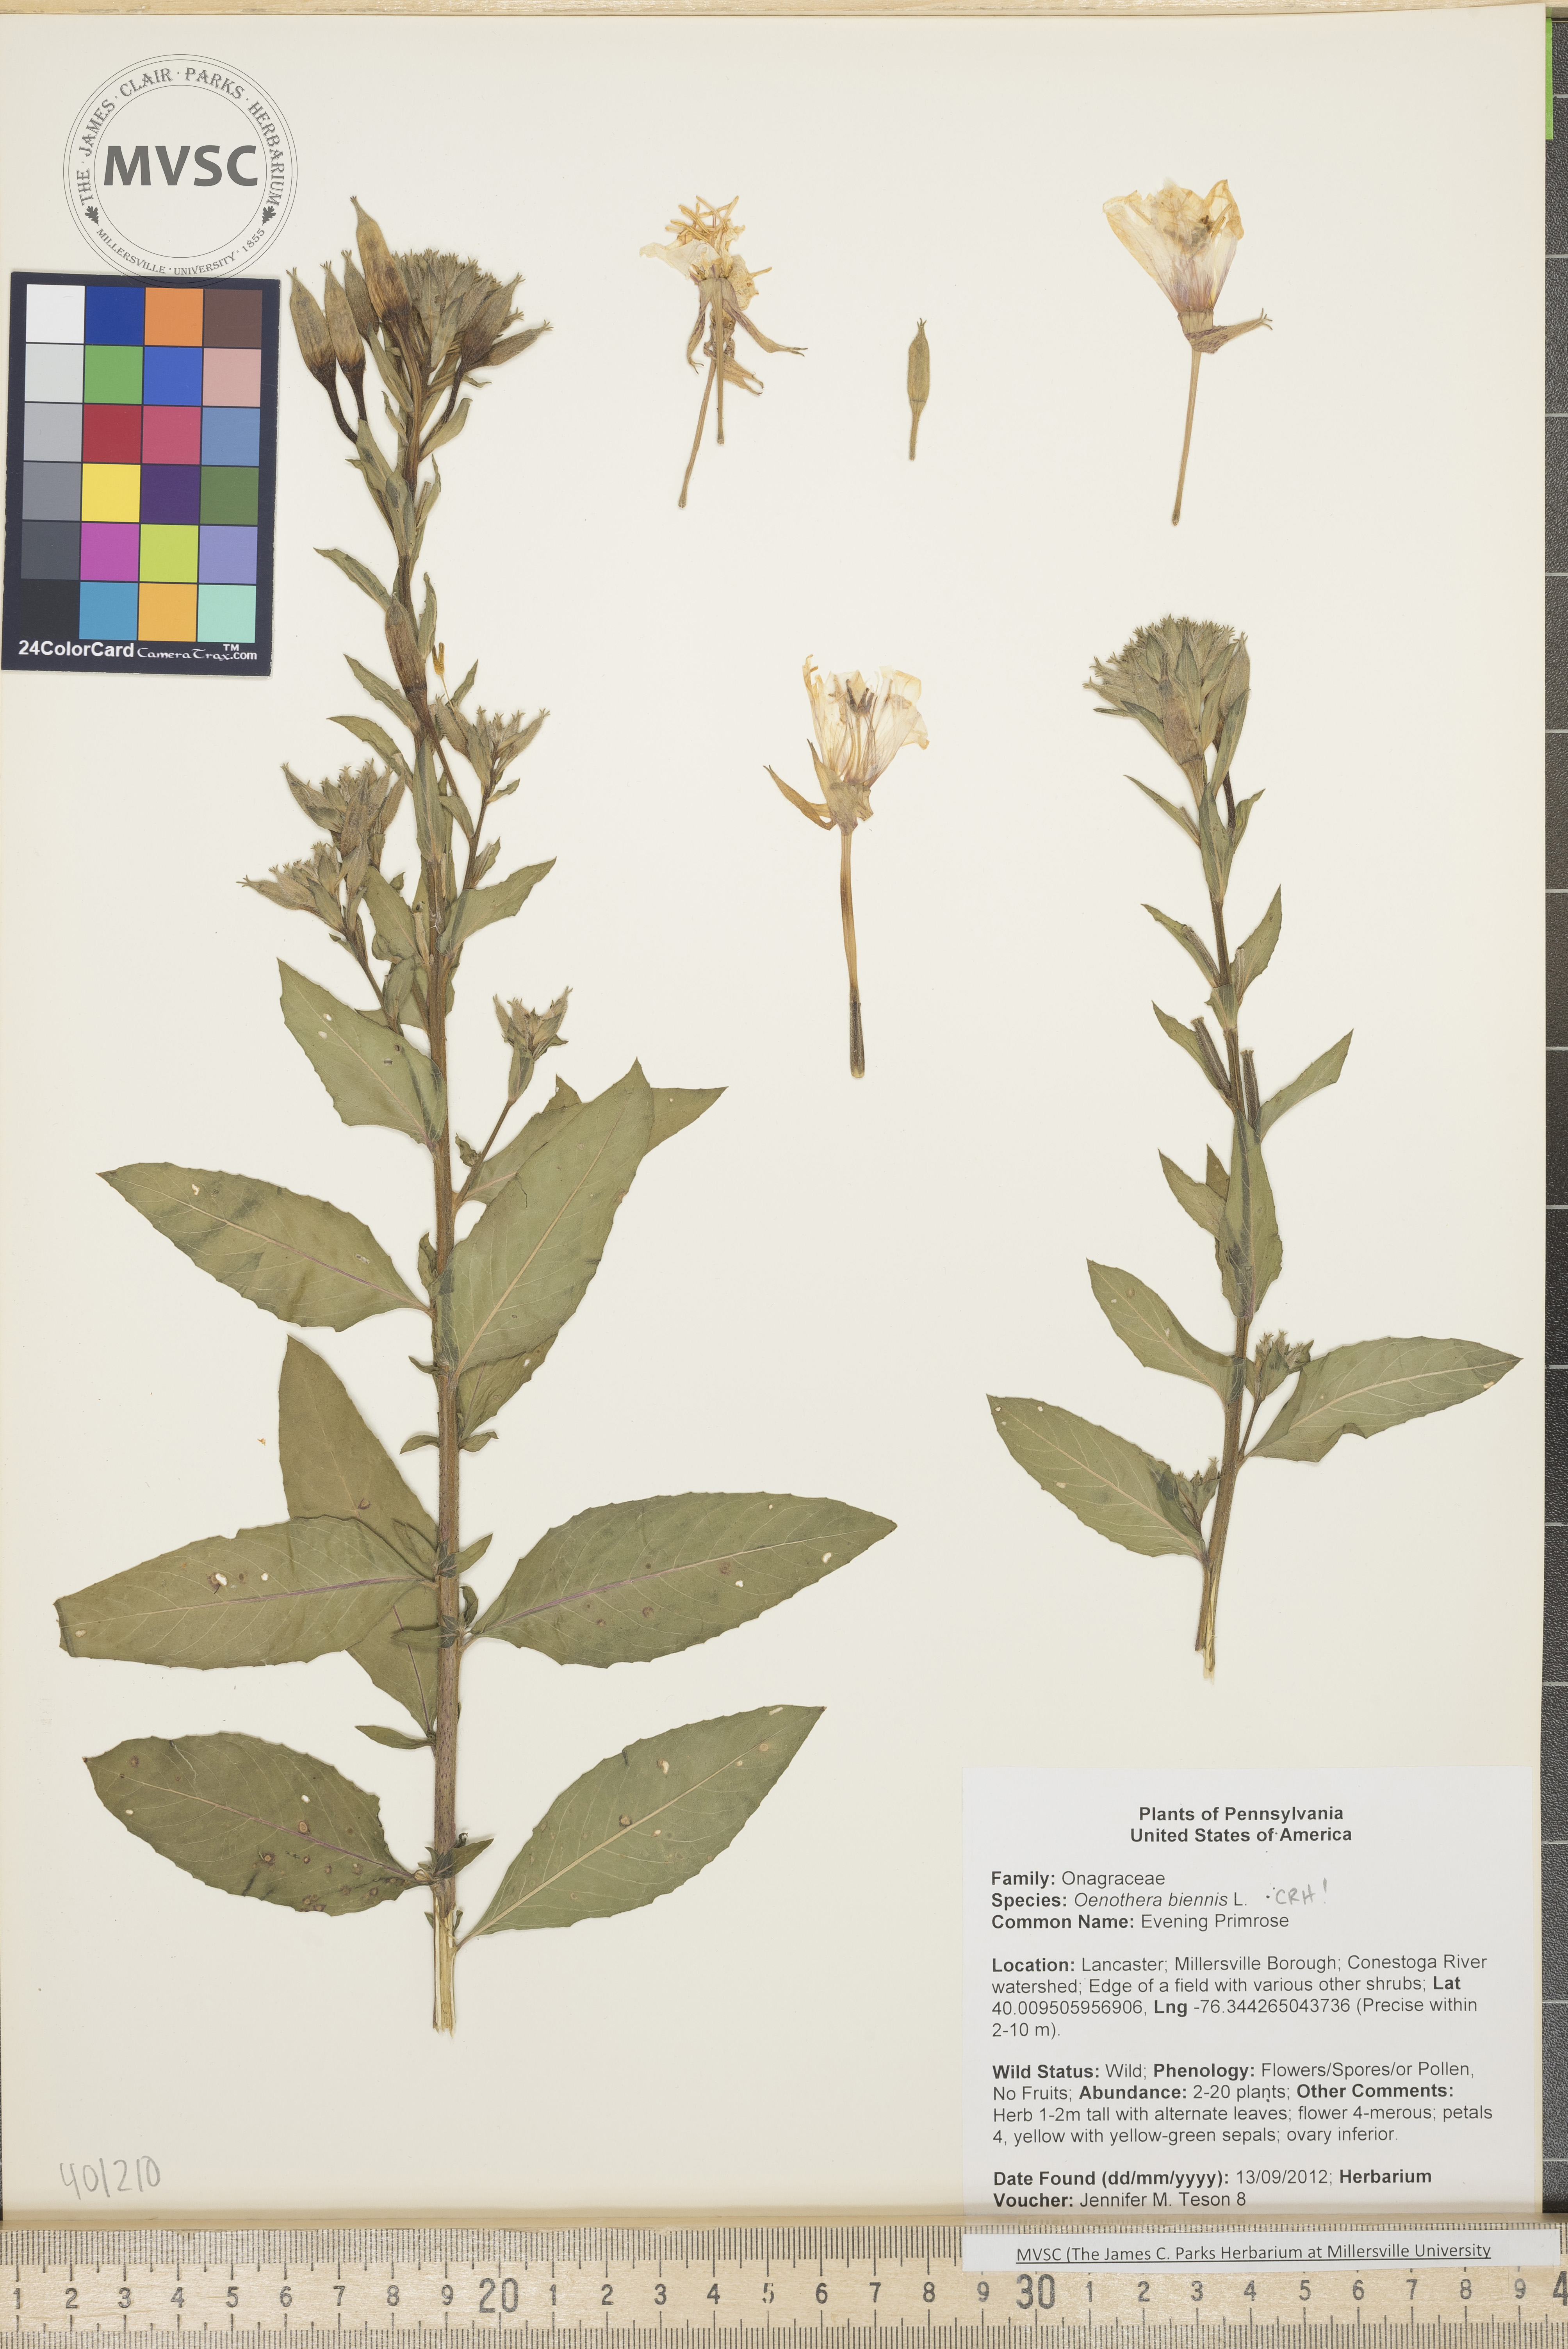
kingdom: Plantae
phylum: Tracheophyta
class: Magnoliopsida
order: Myrtales
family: Onagraceae
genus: Oenothera
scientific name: Oenothera biennis
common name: Evening Primrose
